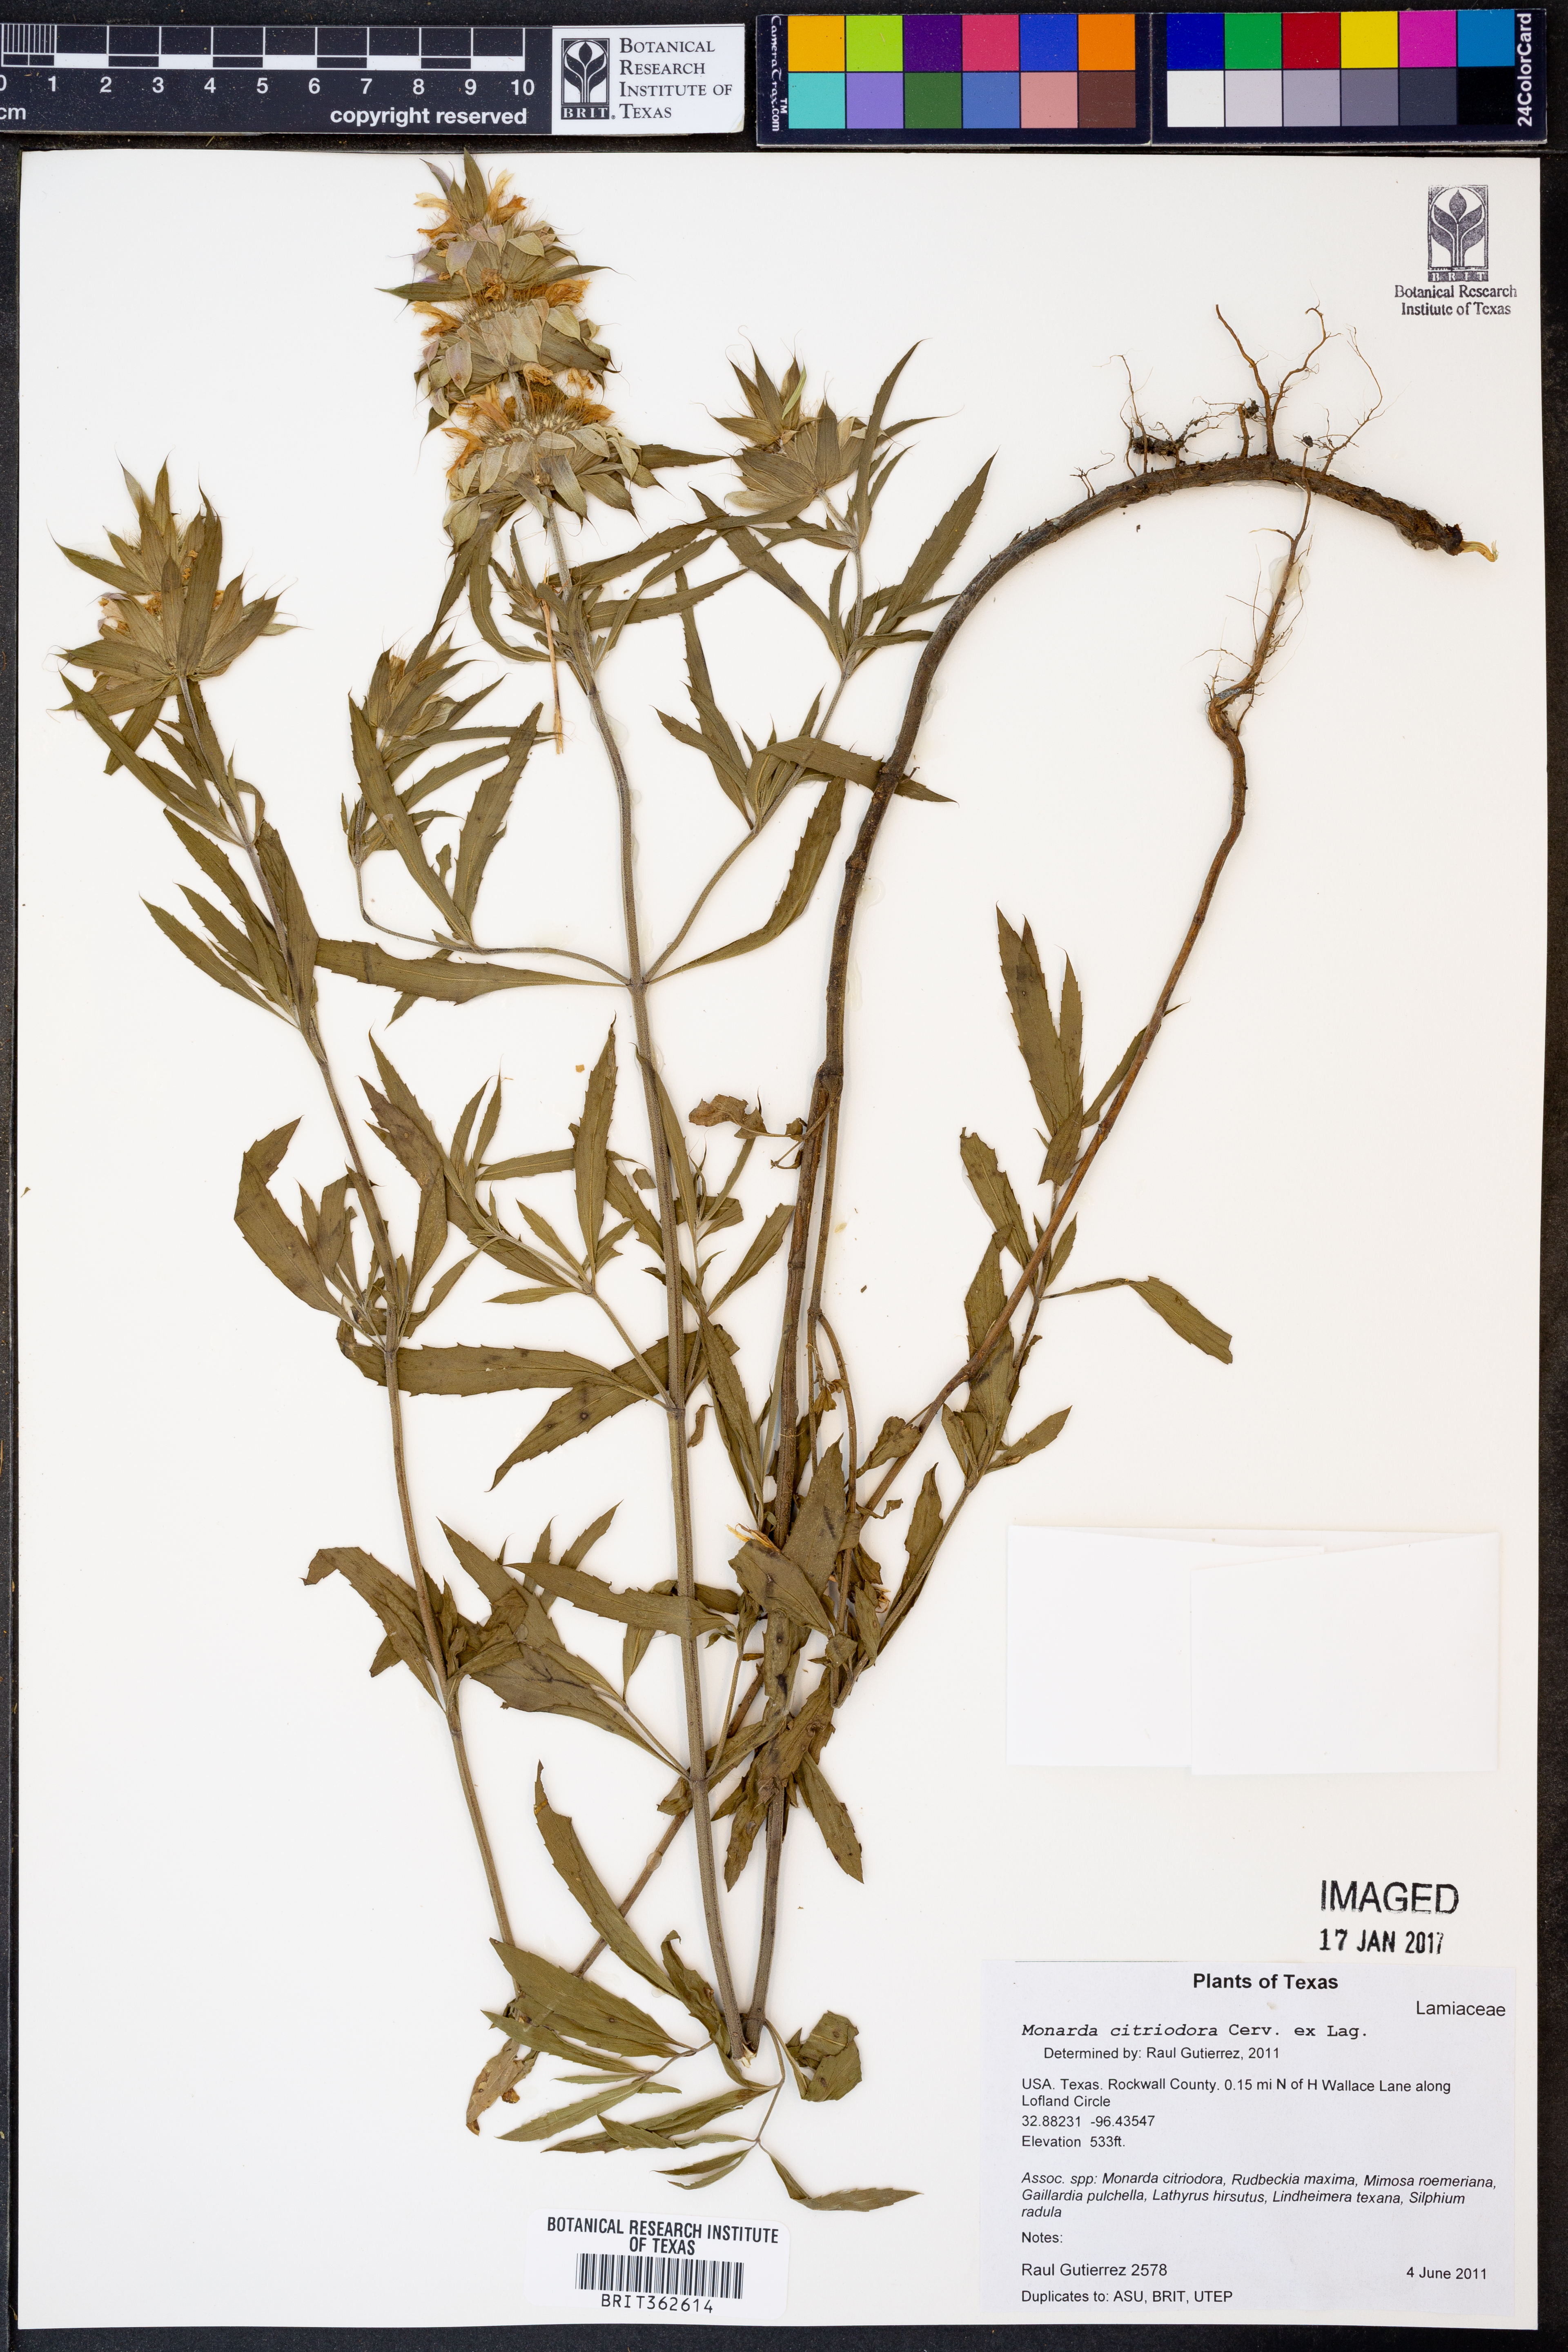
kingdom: Plantae
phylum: Tracheophyta
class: Magnoliopsida
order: Lamiales
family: Lamiaceae
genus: Monarda
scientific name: Monarda citriodora
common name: Lemon beebalm
